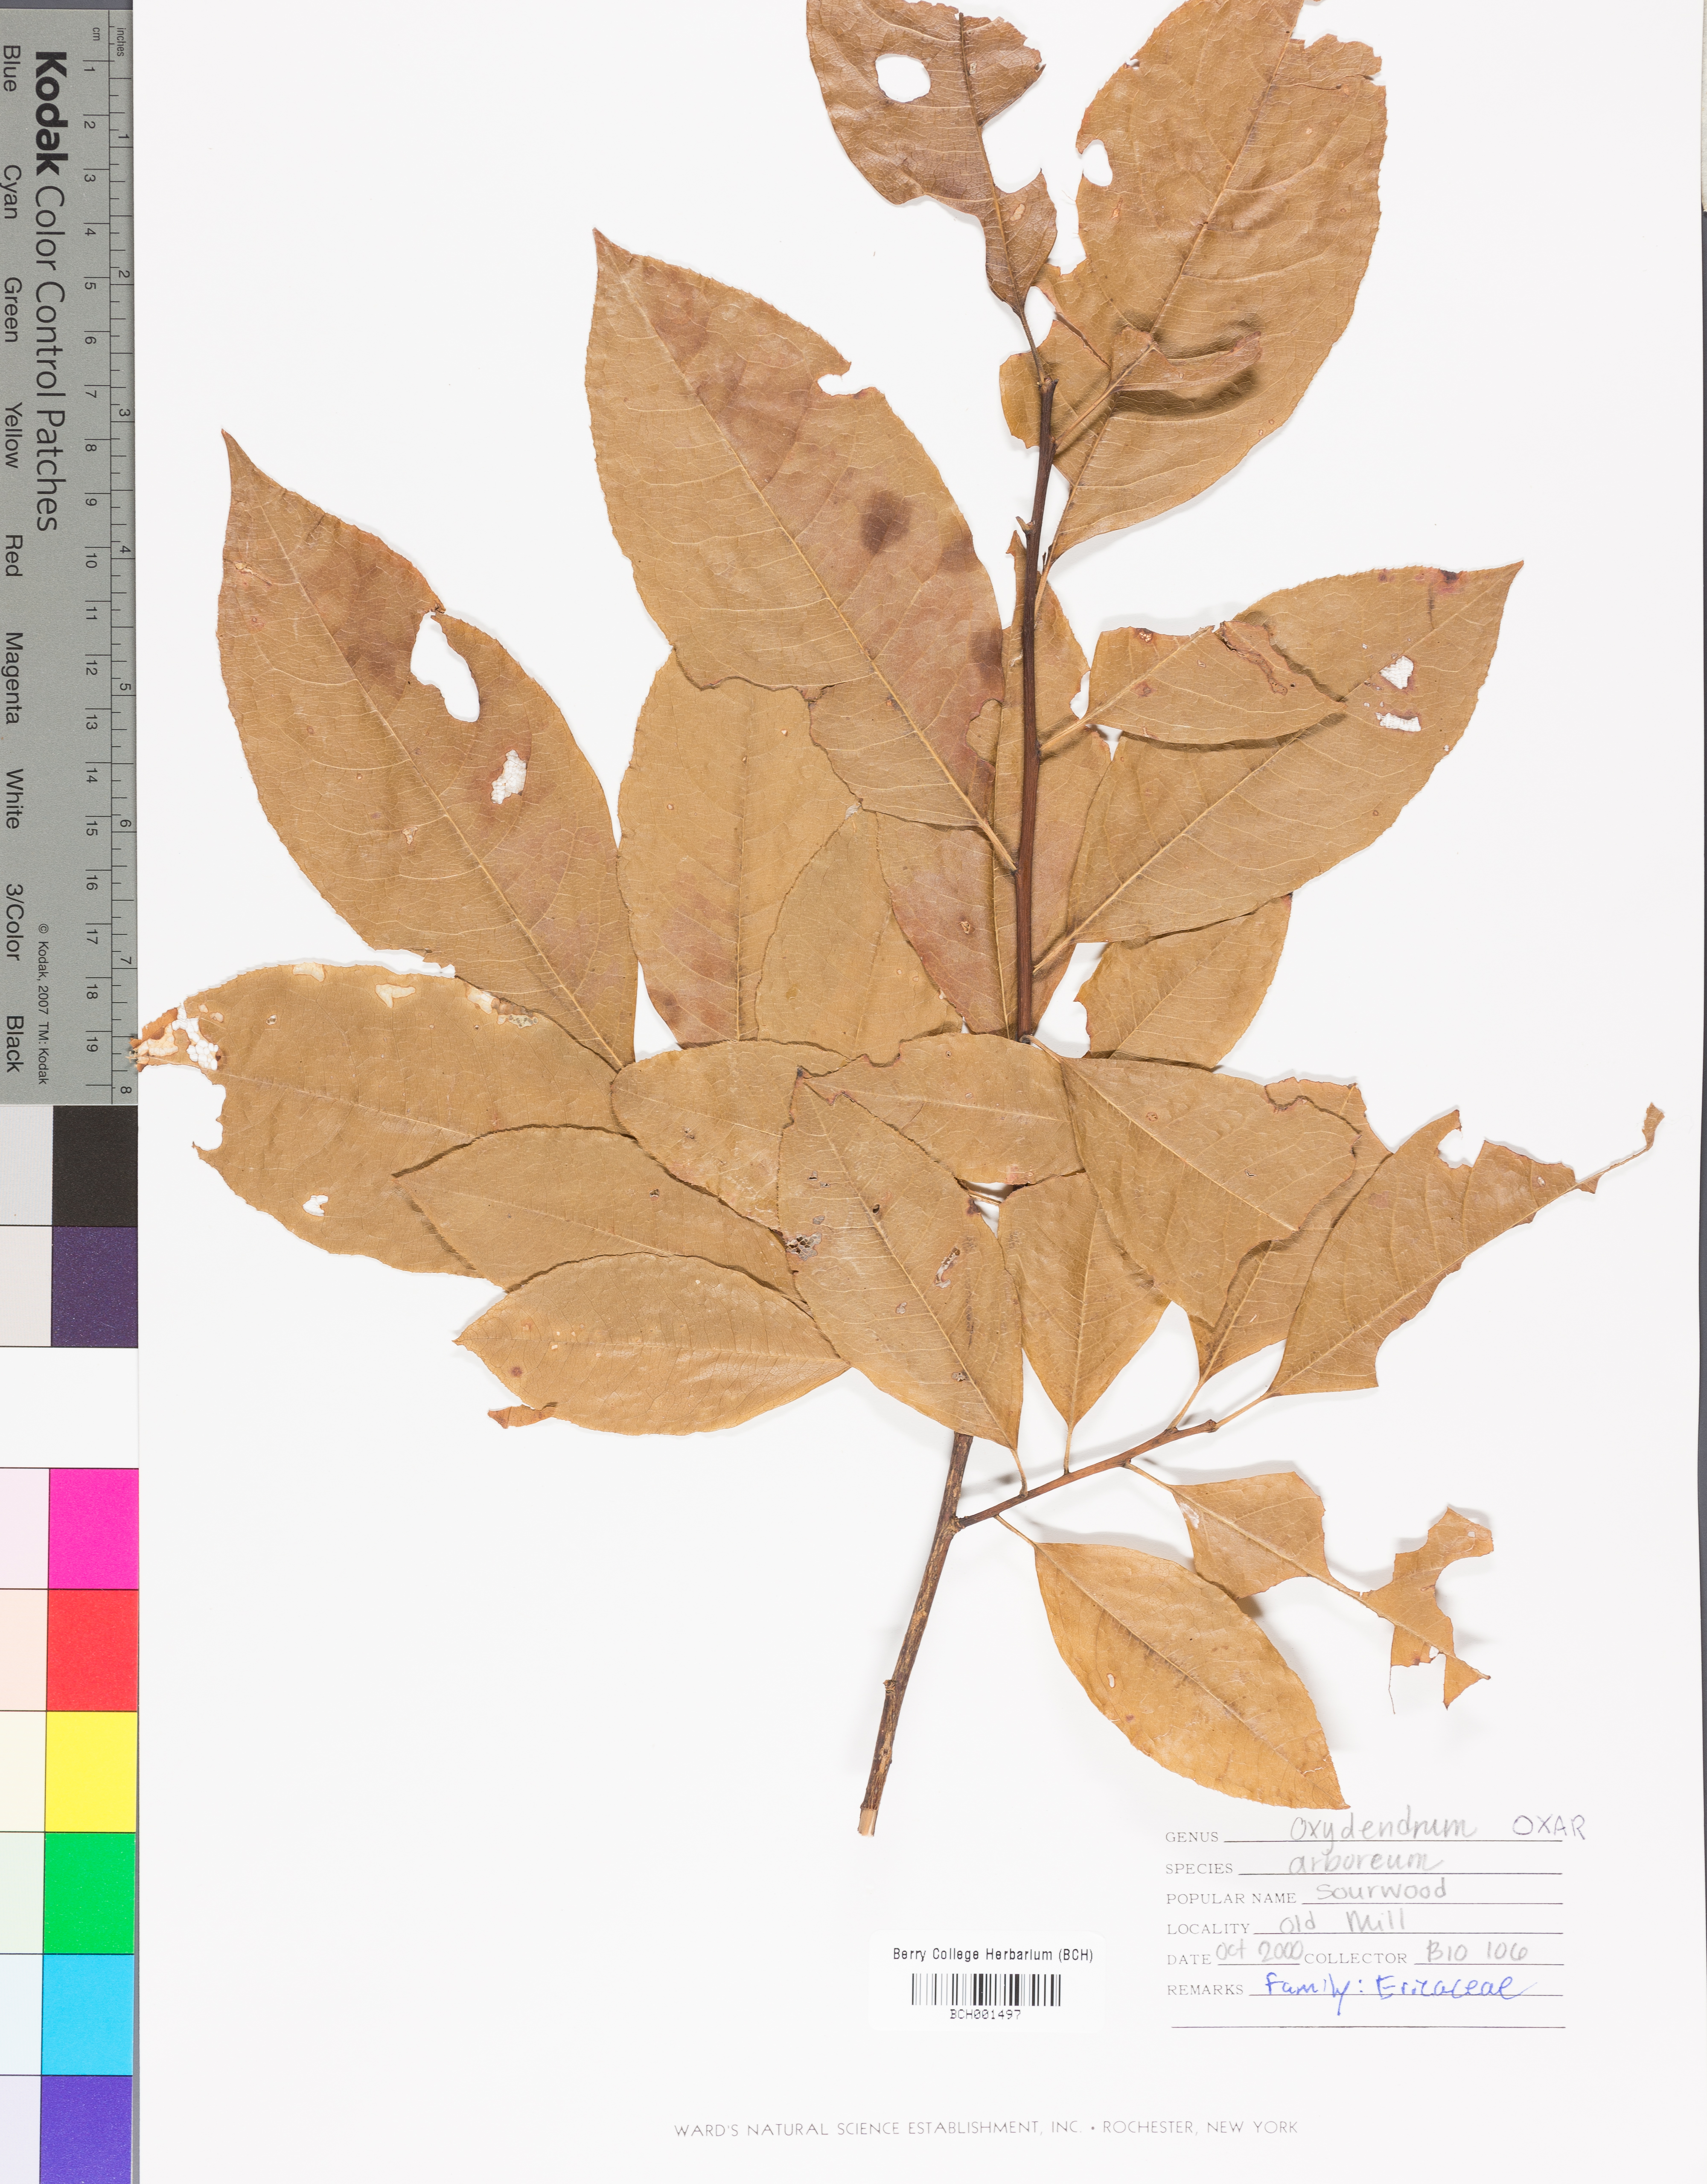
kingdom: Plantae
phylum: Tracheophyta
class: Magnoliopsida
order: Ericales
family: Ericaceae
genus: Oxydendrum
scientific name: Oxydendrum arboreum
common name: Sourwood
